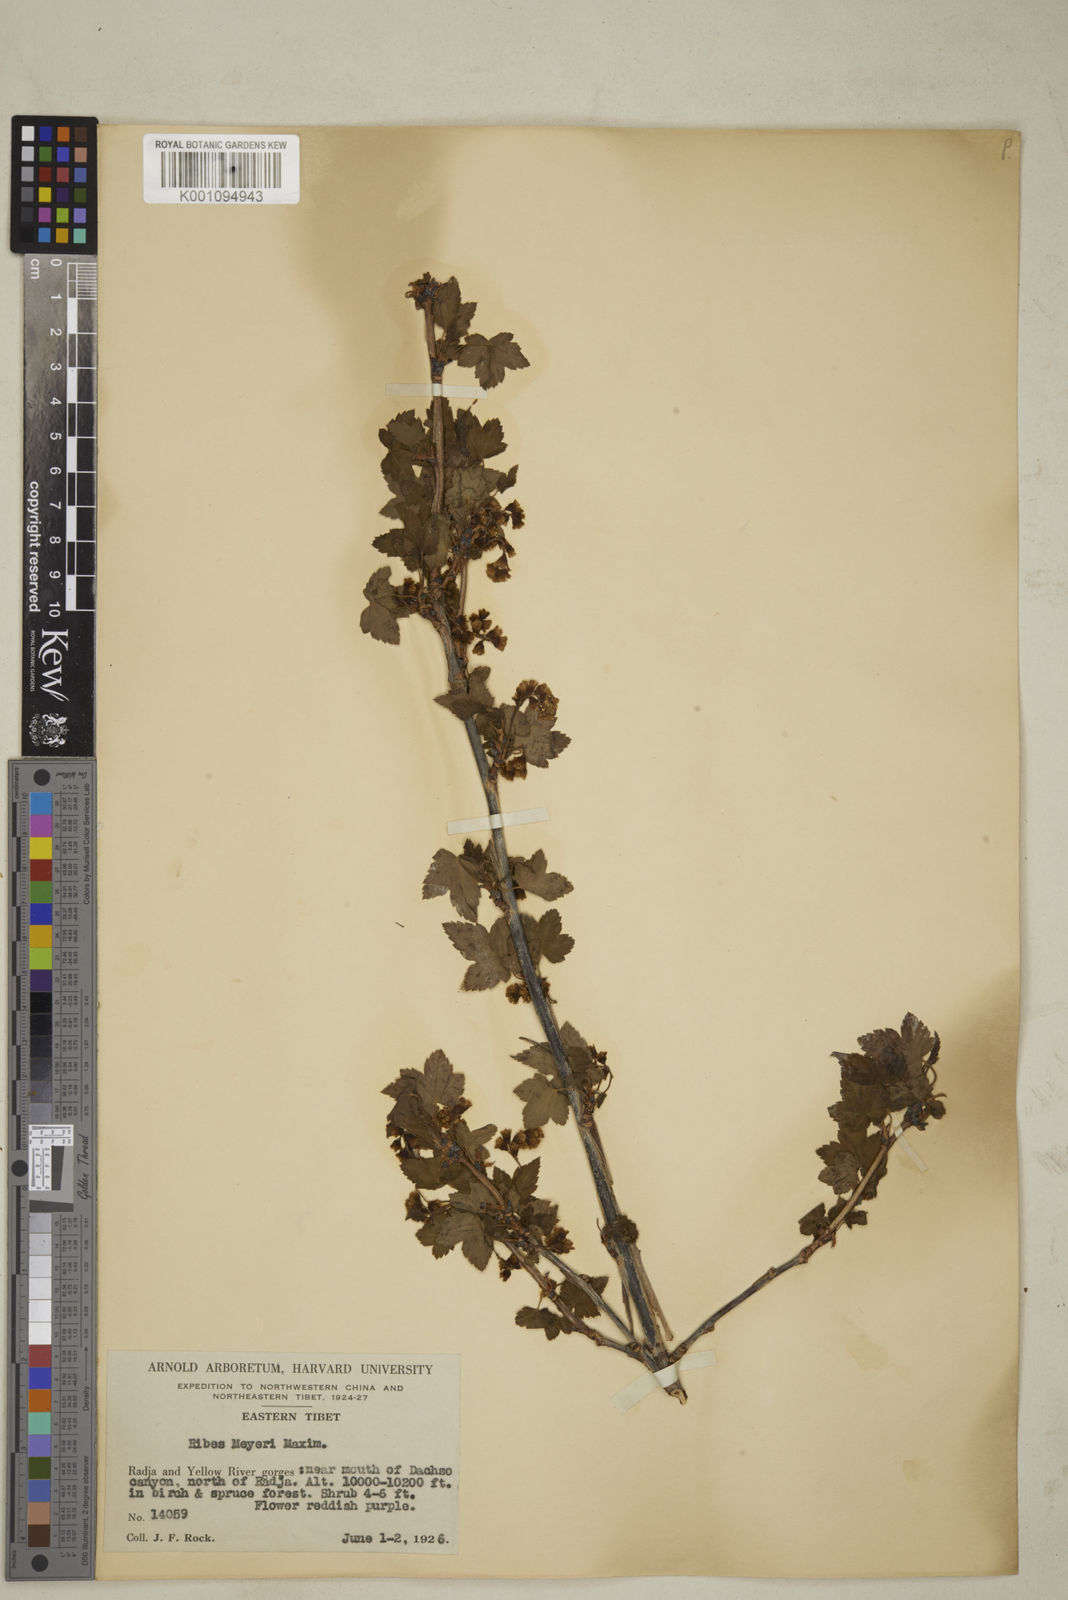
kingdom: Plantae
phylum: Tracheophyta
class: Magnoliopsida
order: Saxifragales
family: Grossulariaceae
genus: Ribes
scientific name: Ribes meyeri
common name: Meyer's currant
